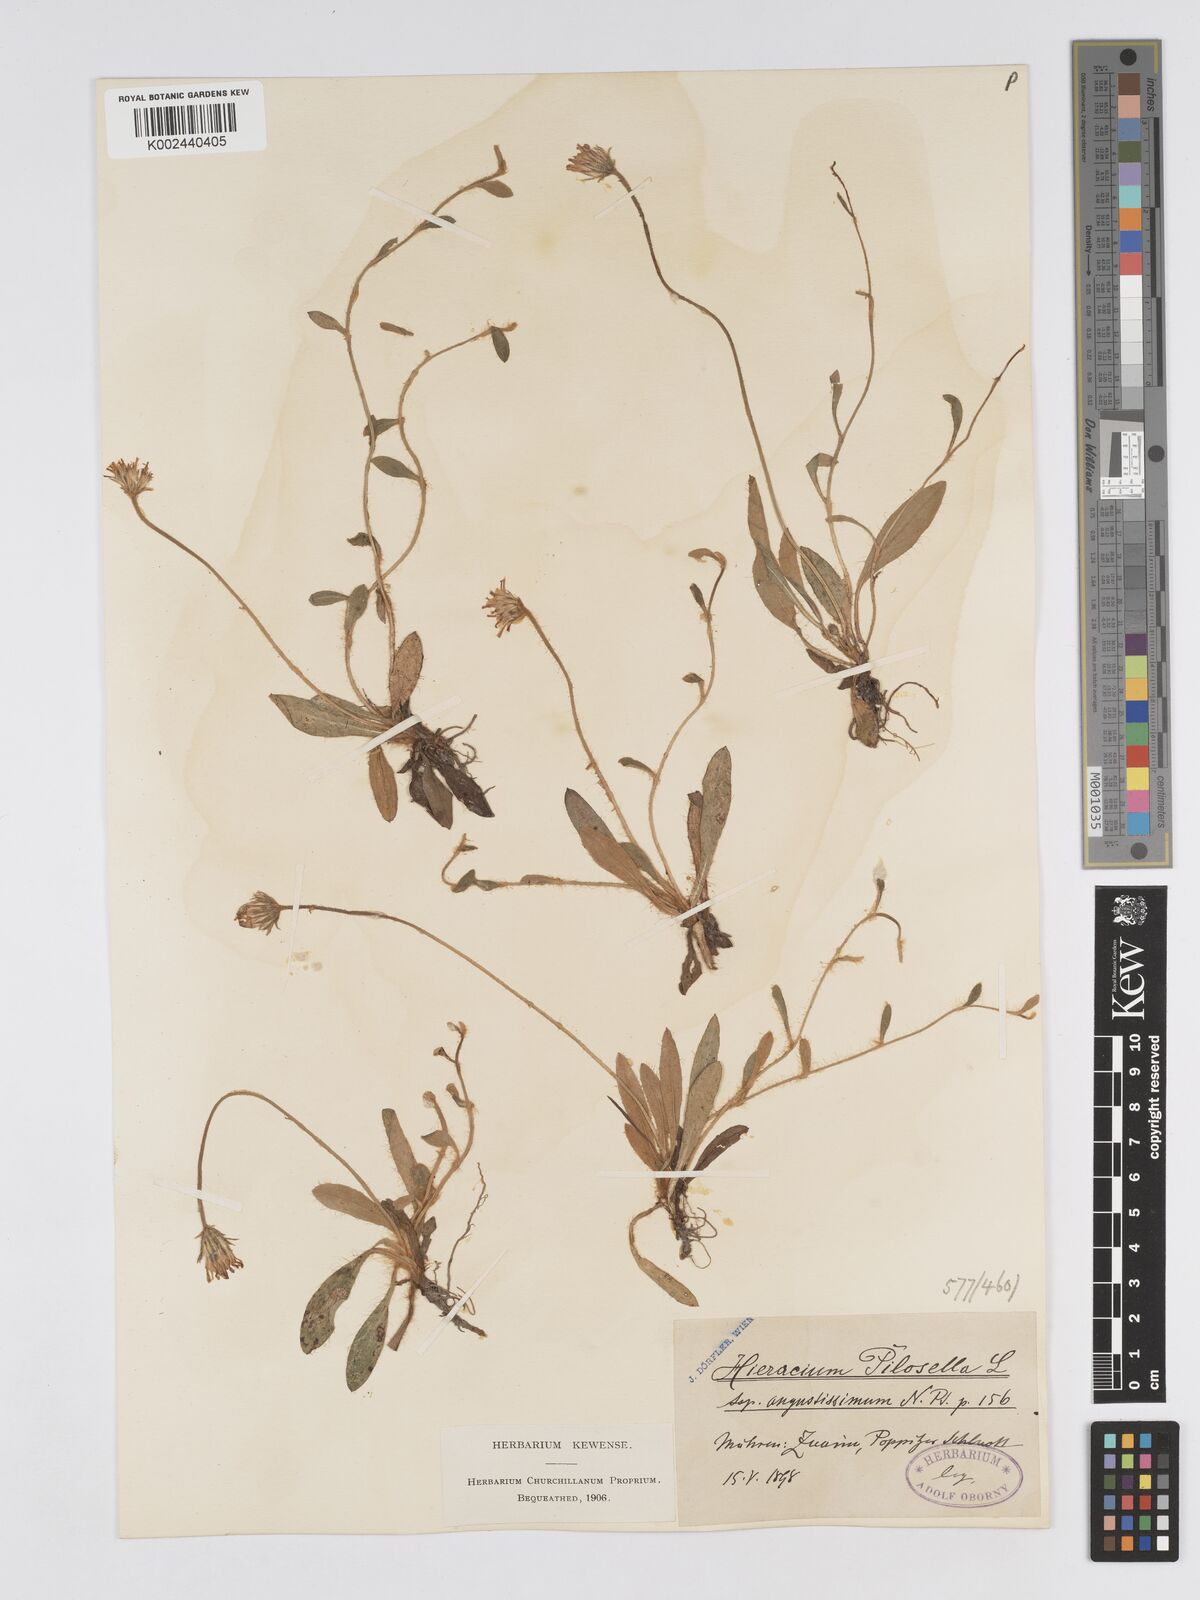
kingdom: Plantae
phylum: Tracheophyta
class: Magnoliopsida
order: Asterales
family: Asteraceae
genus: Pilosella
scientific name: Pilosella officinarum
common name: Mouse-ear hawkweed
